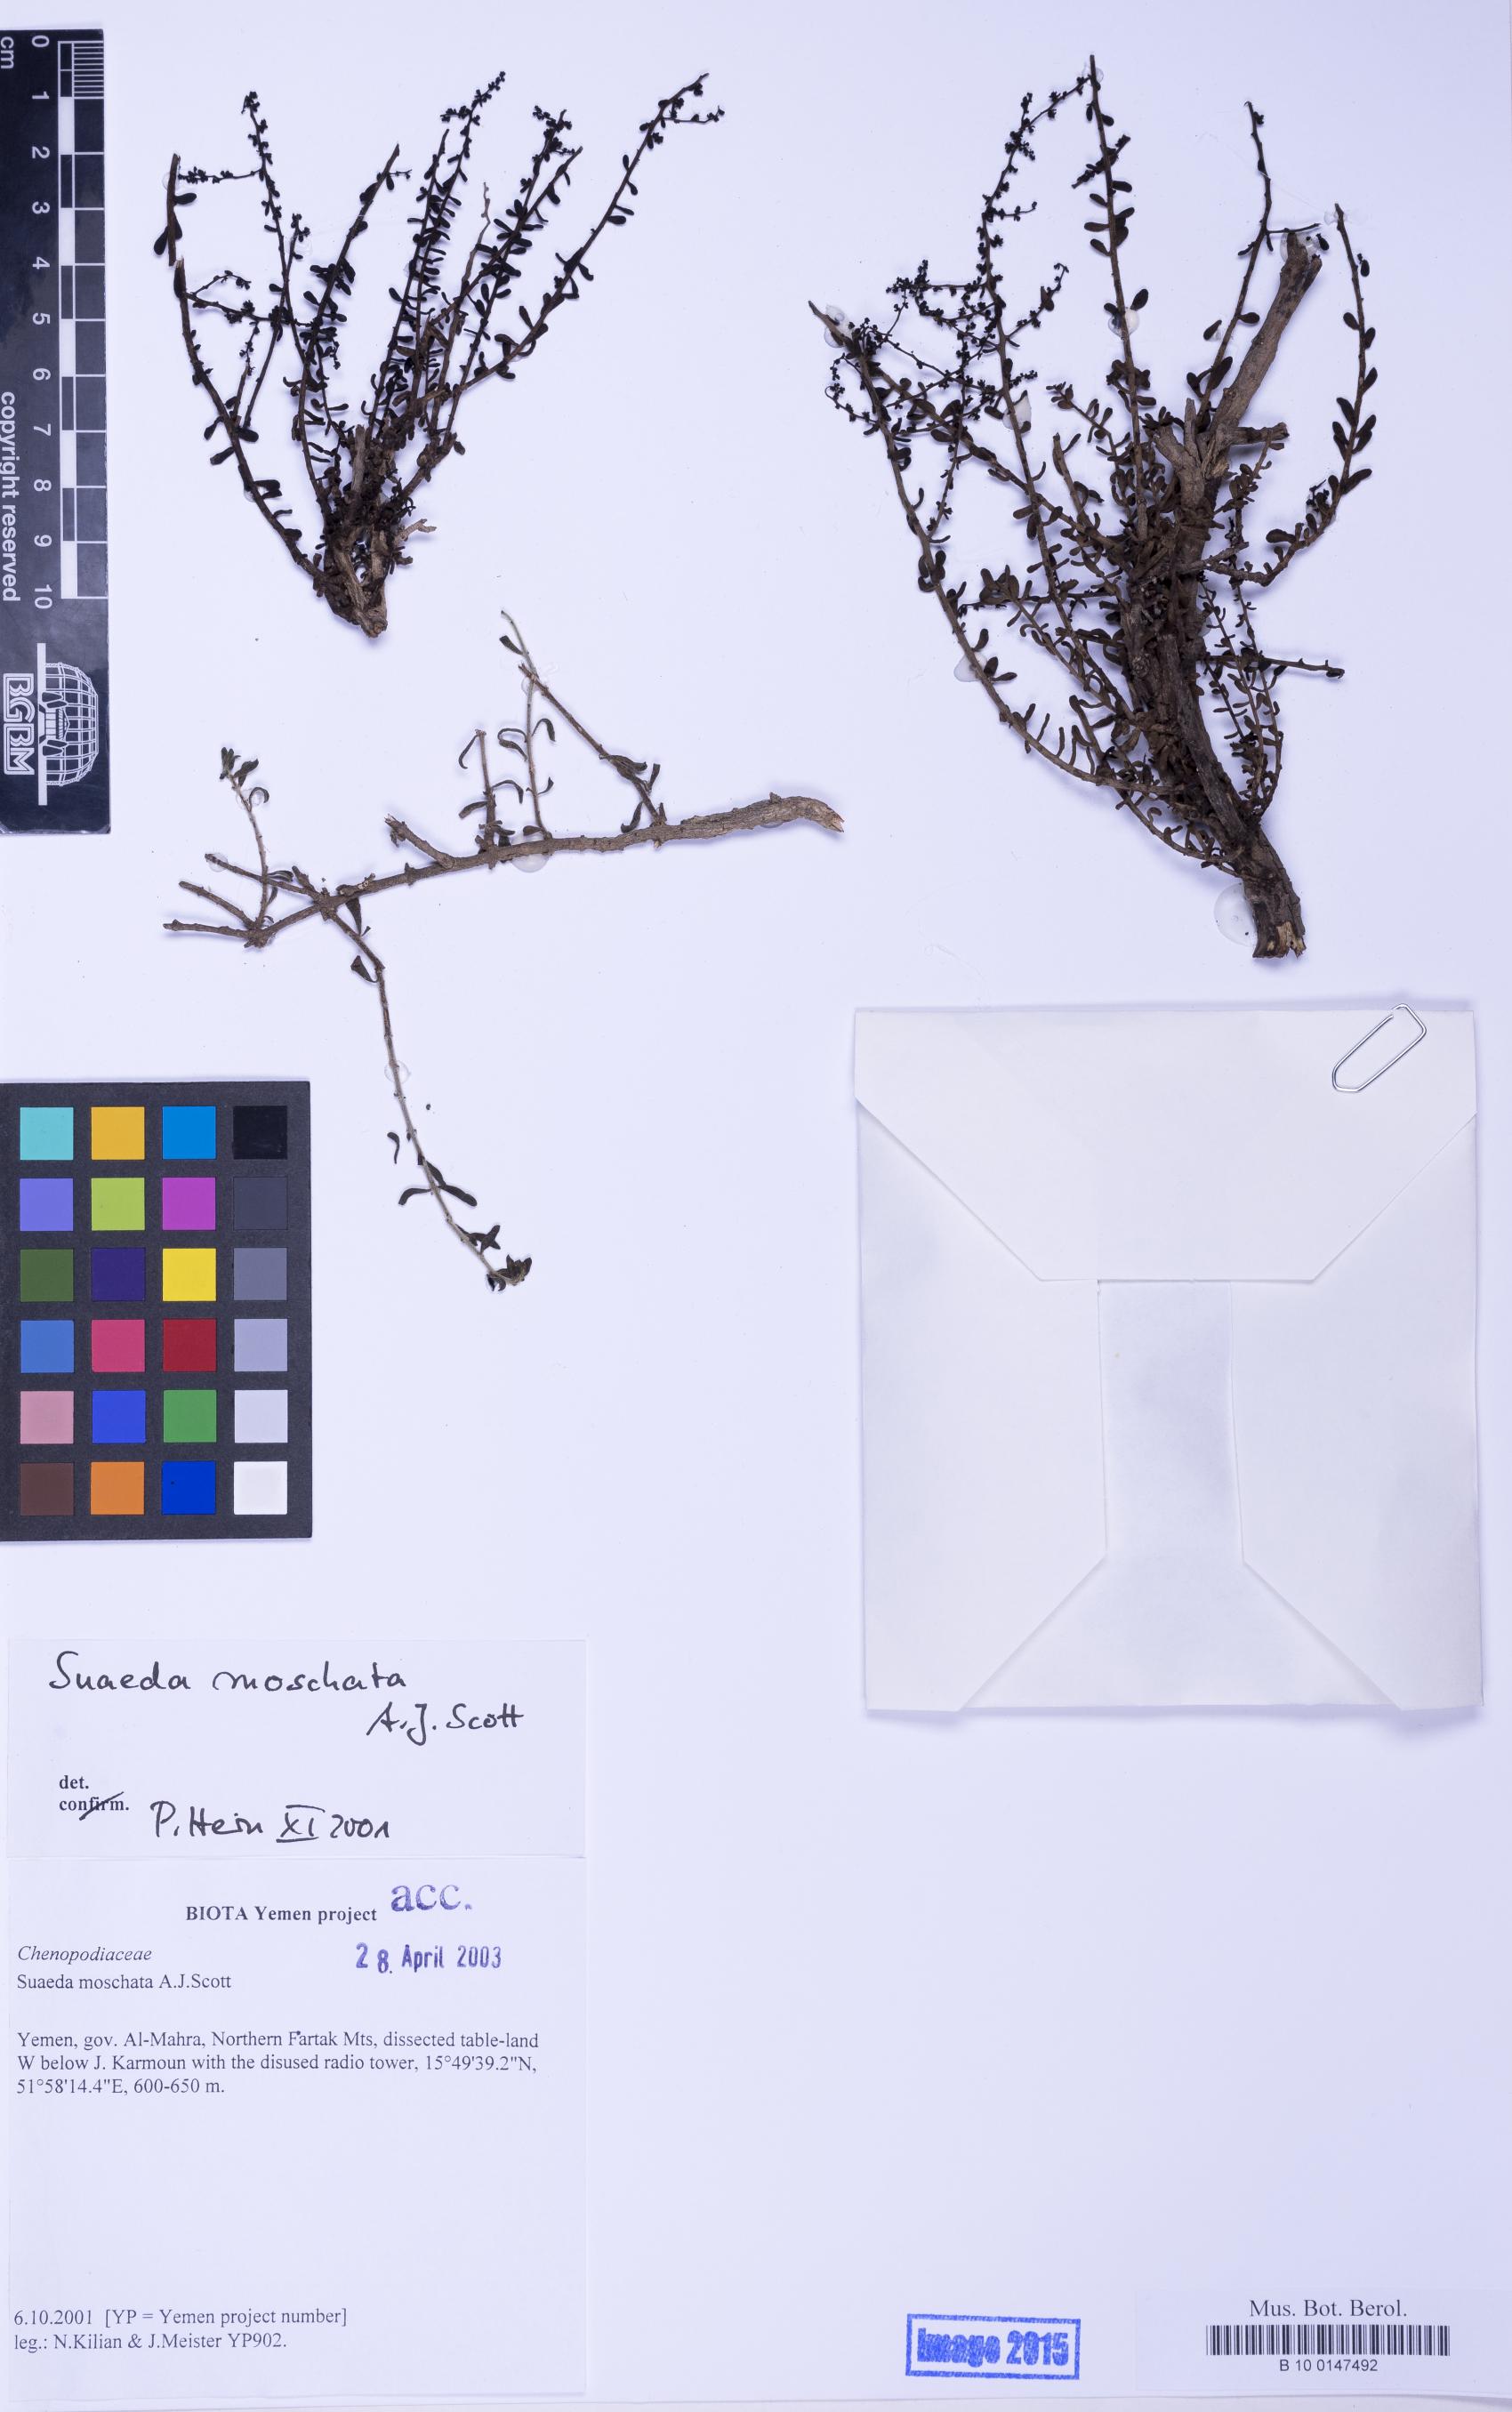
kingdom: Plantae
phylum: Tracheophyta
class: Magnoliopsida
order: Caryophyllales
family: Amaranthaceae
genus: Suaeda
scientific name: Suaeda moschata
